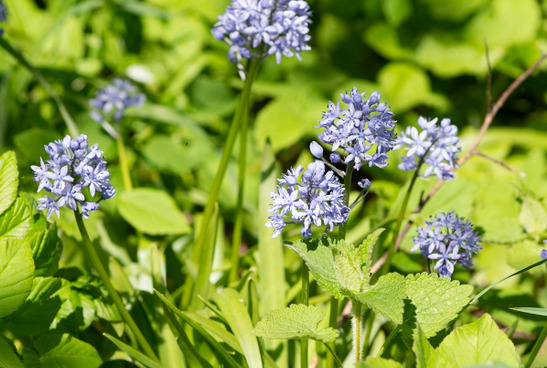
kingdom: Plantae
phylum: Tracheophyta
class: Liliopsida
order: Asparagales
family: Asparagaceae
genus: Hyacinthoides
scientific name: Hyacinthoides italica
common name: Italiensk skilla
